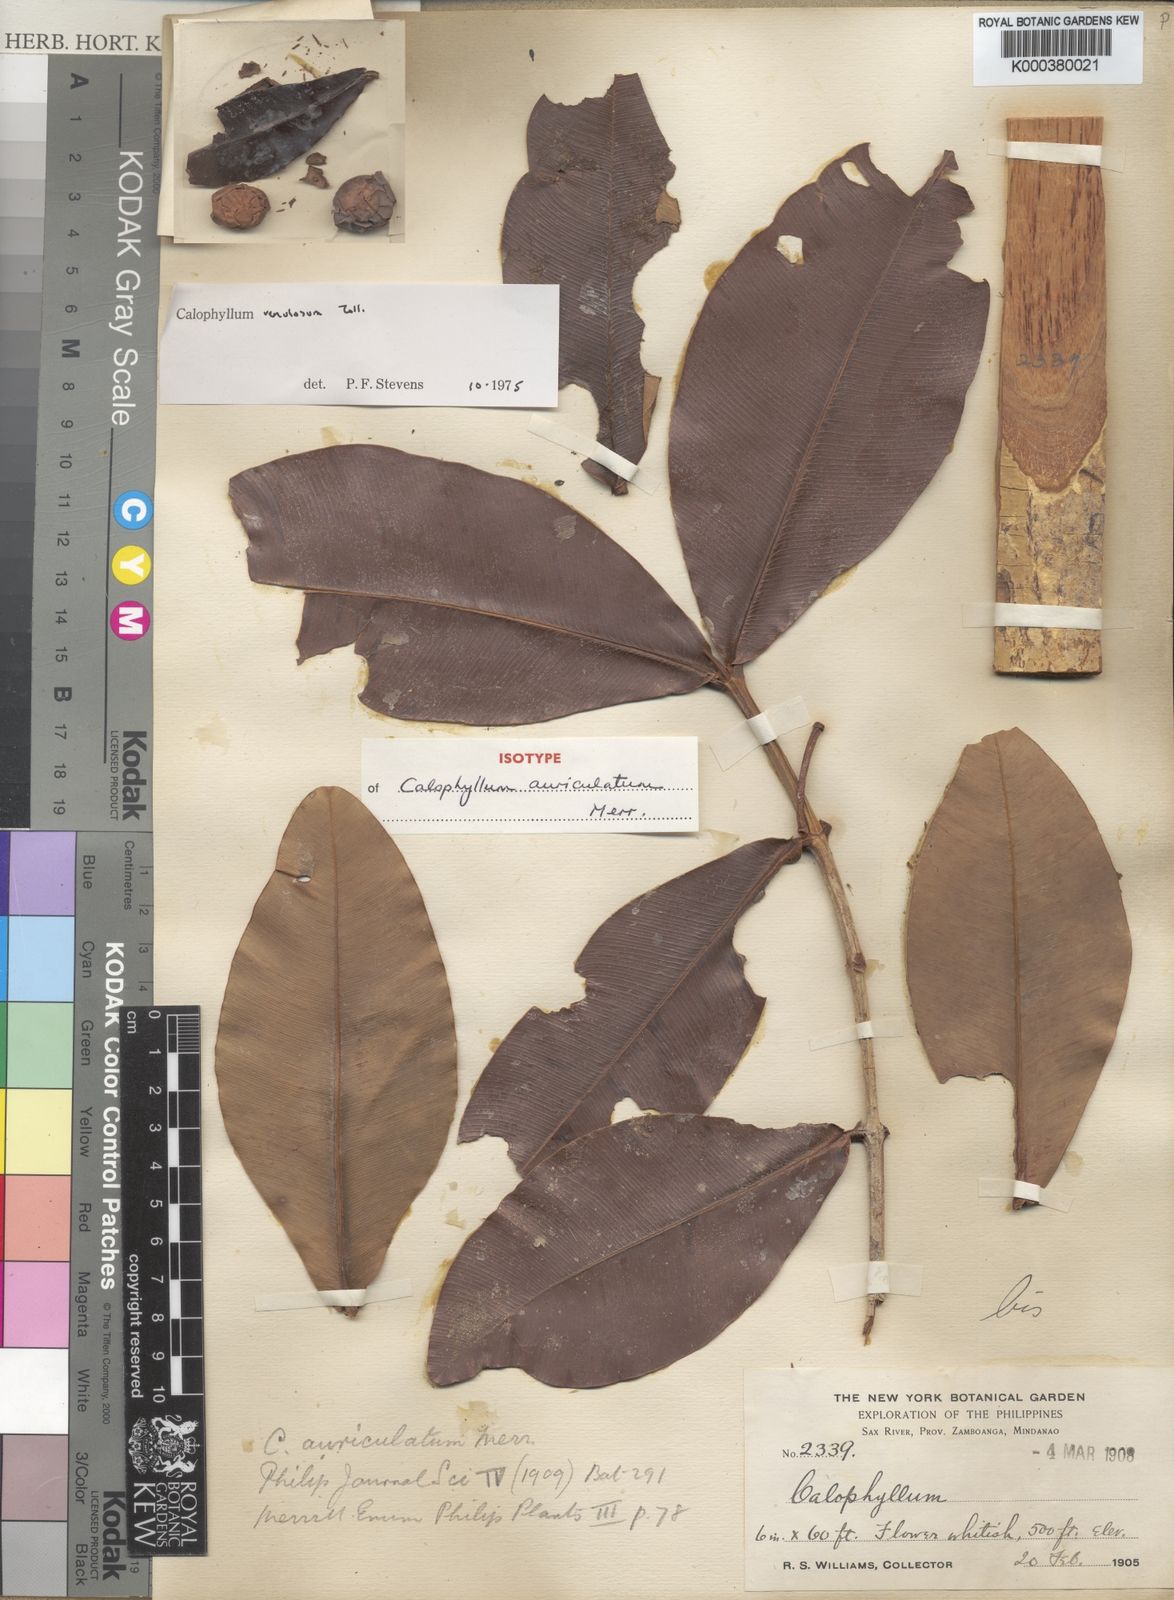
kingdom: Plantae
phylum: Tracheophyta
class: Magnoliopsida
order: Malpighiales
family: Calophyllaceae
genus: Calophyllum
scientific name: Calophyllum venulosum
